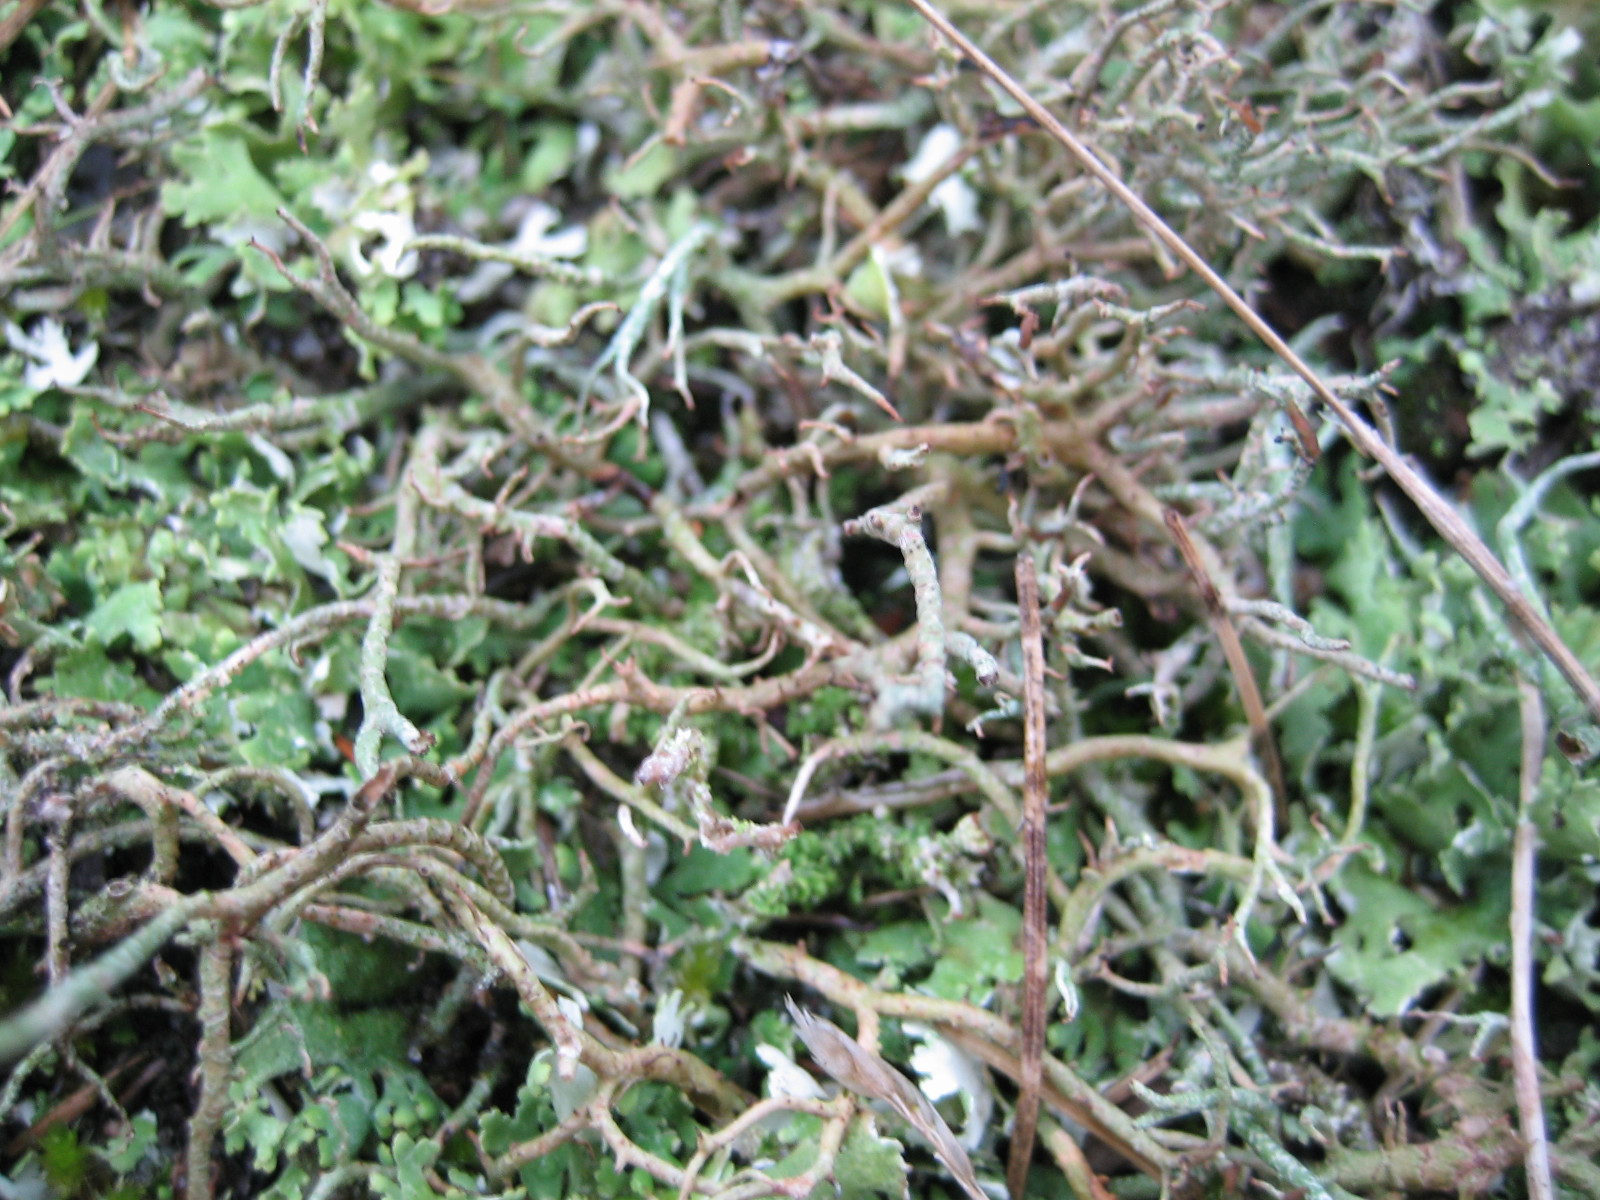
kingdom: Fungi
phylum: Ascomycota
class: Lecanoromycetes
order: Lecanorales
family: Cladoniaceae
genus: Cladonia
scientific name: Cladonia furcata
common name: kløftet bægerlav
